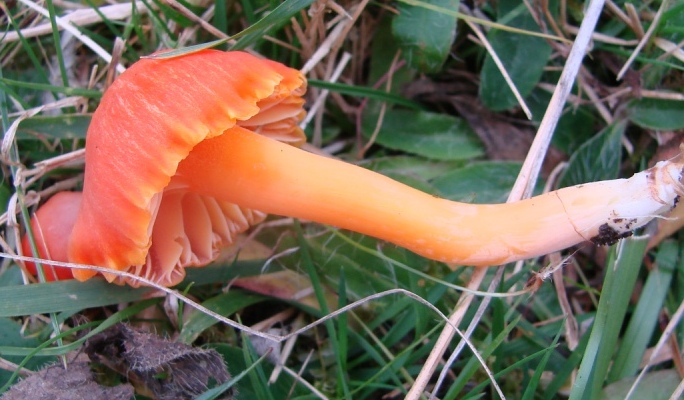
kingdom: Fungi
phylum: Basidiomycota
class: Agaricomycetes
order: Agaricales
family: Hygrophoraceae
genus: Hygrocybe
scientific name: Hygrocybe reidii
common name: honning-vokshat
